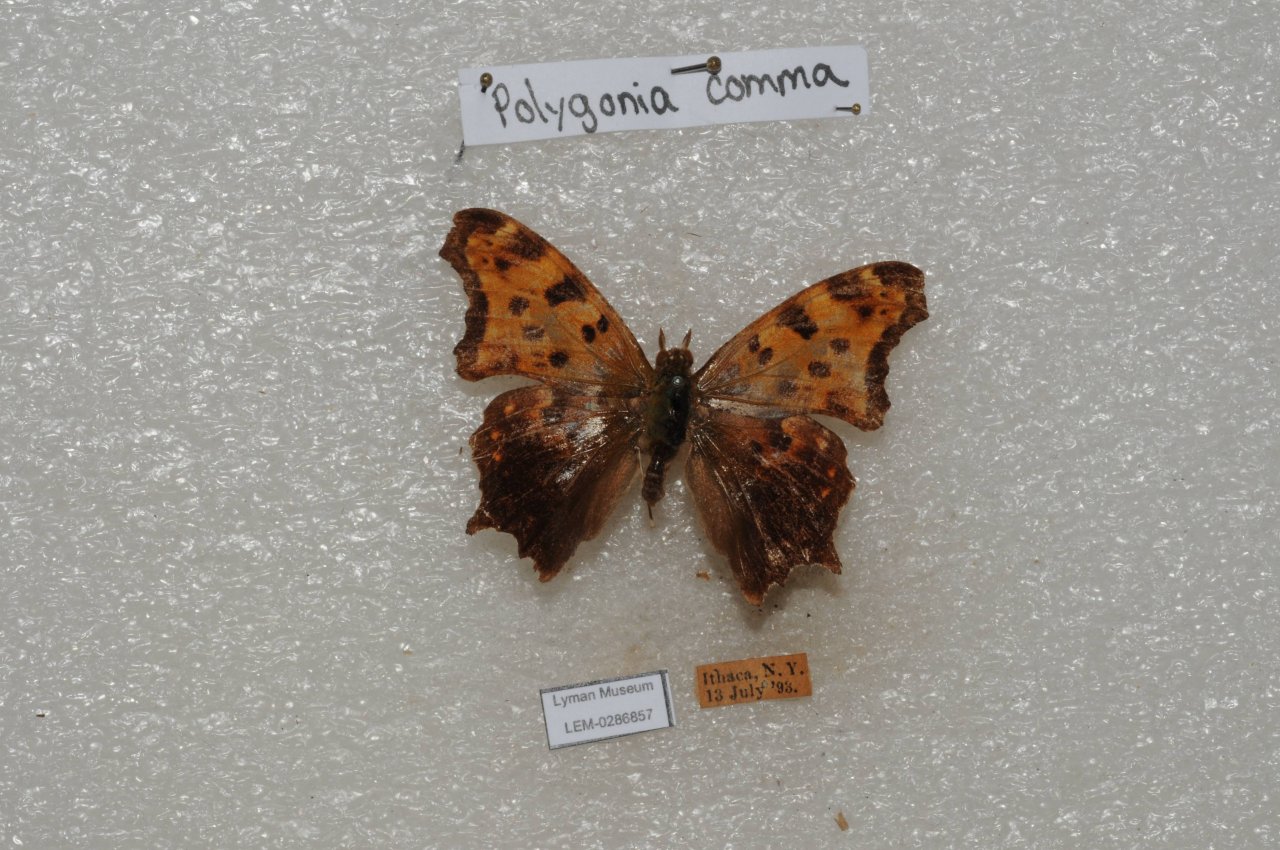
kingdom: Animalia
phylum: Arthropoda
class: Insecta
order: Lepidoptera
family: Nymphalidae
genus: Polygonia
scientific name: Polygonia comma
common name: Eastern Comma
